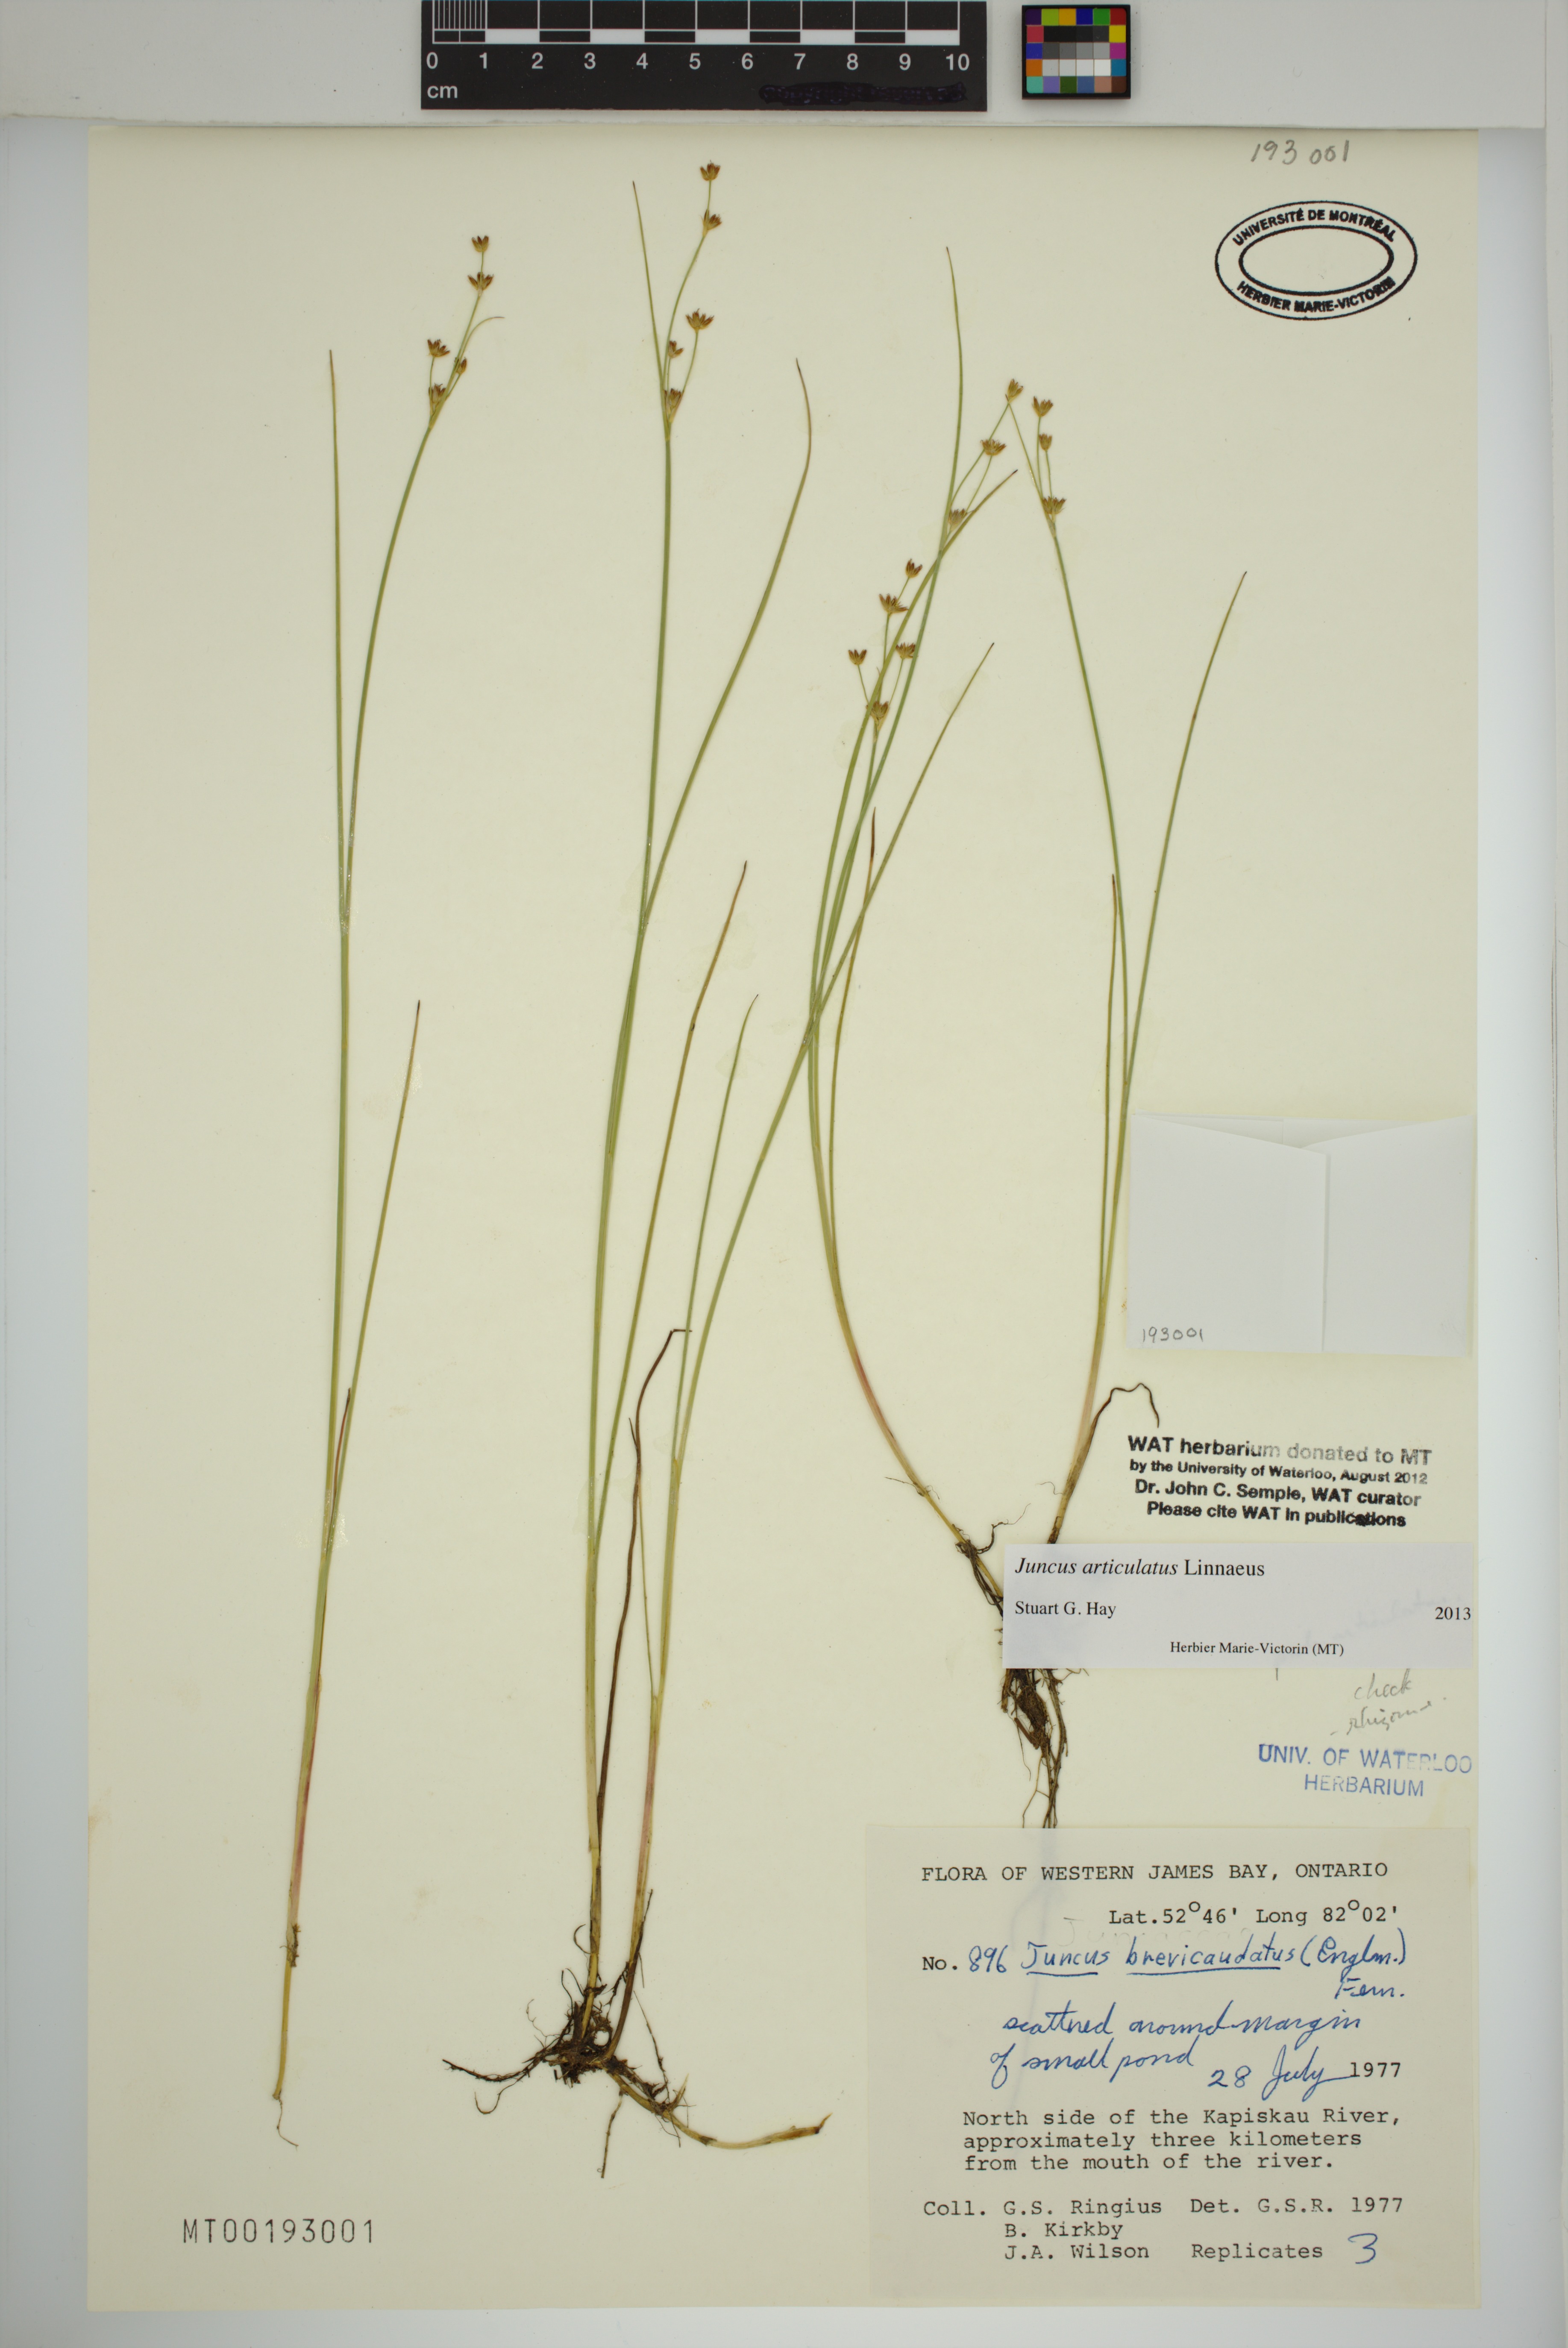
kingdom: Plantae
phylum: Tracheophyta
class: Liliopsida
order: Poales
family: Juncaceae
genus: Juncus
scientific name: Juncus articulatus
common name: Jointed rush
